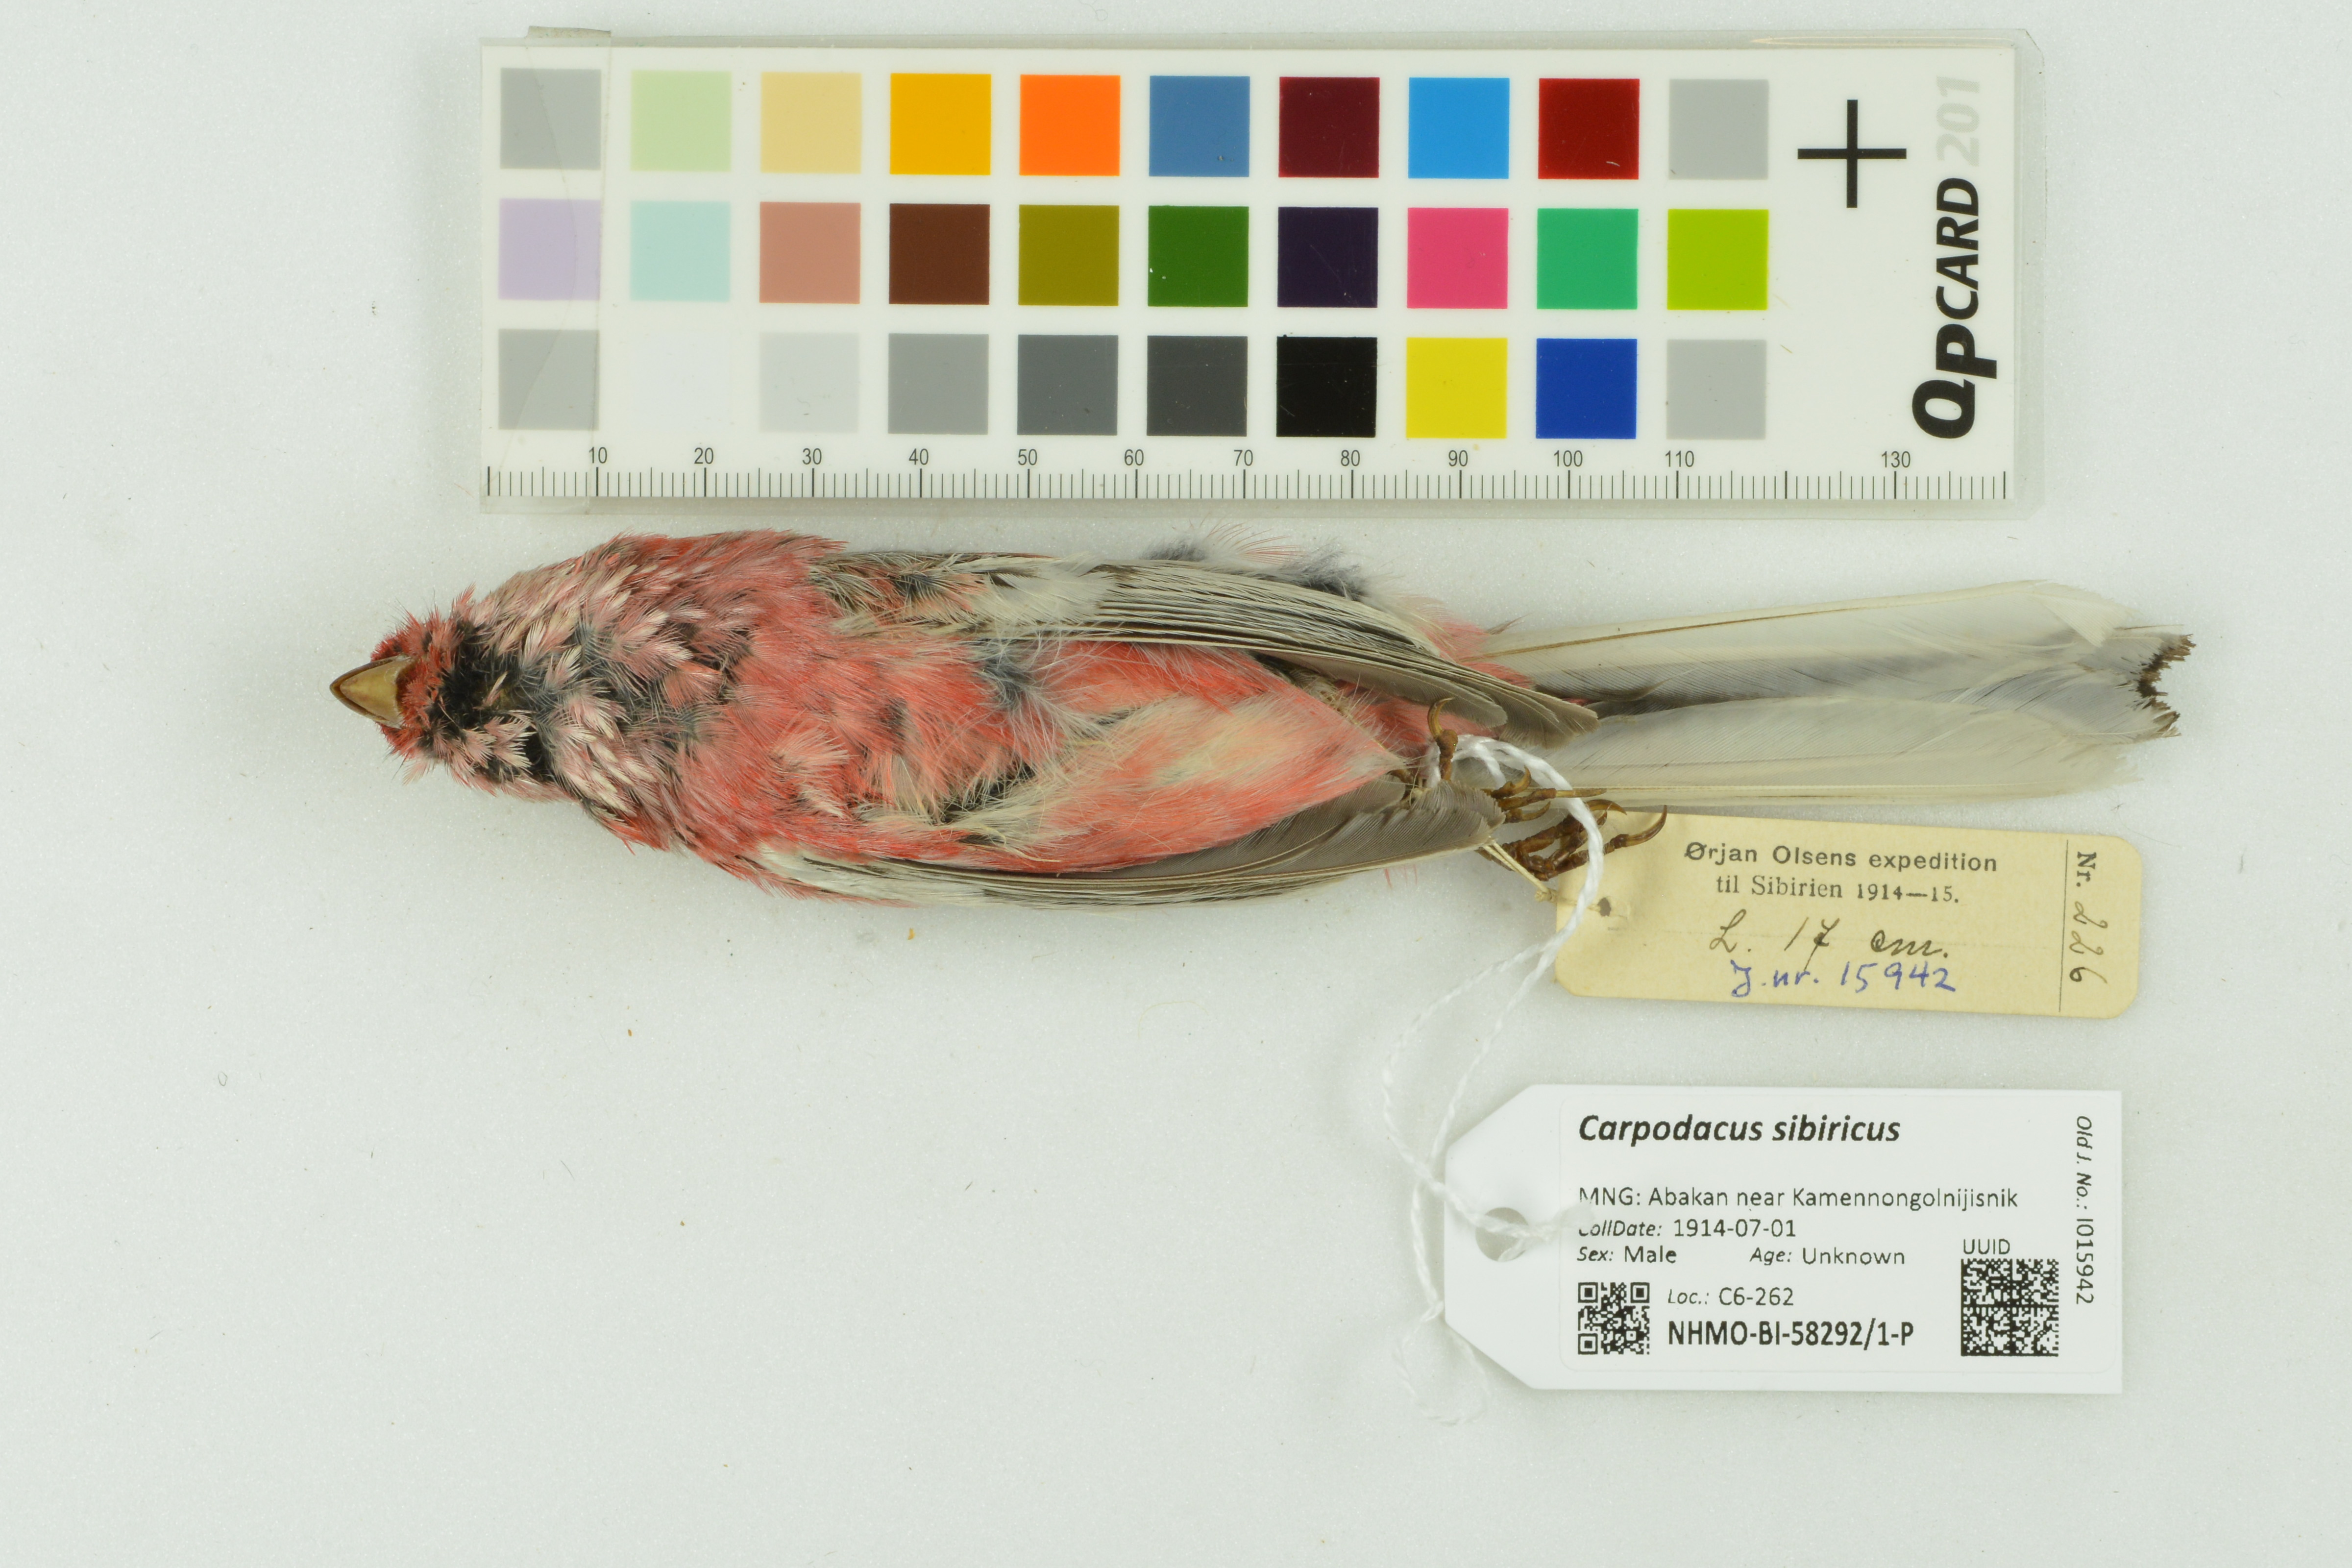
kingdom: Animalia
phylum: Chordata
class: Aves
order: Passeriformes
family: Fringillidae
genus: Carpodacus
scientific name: Carpodacus sibiricus
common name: Long-tailed rosefinch
